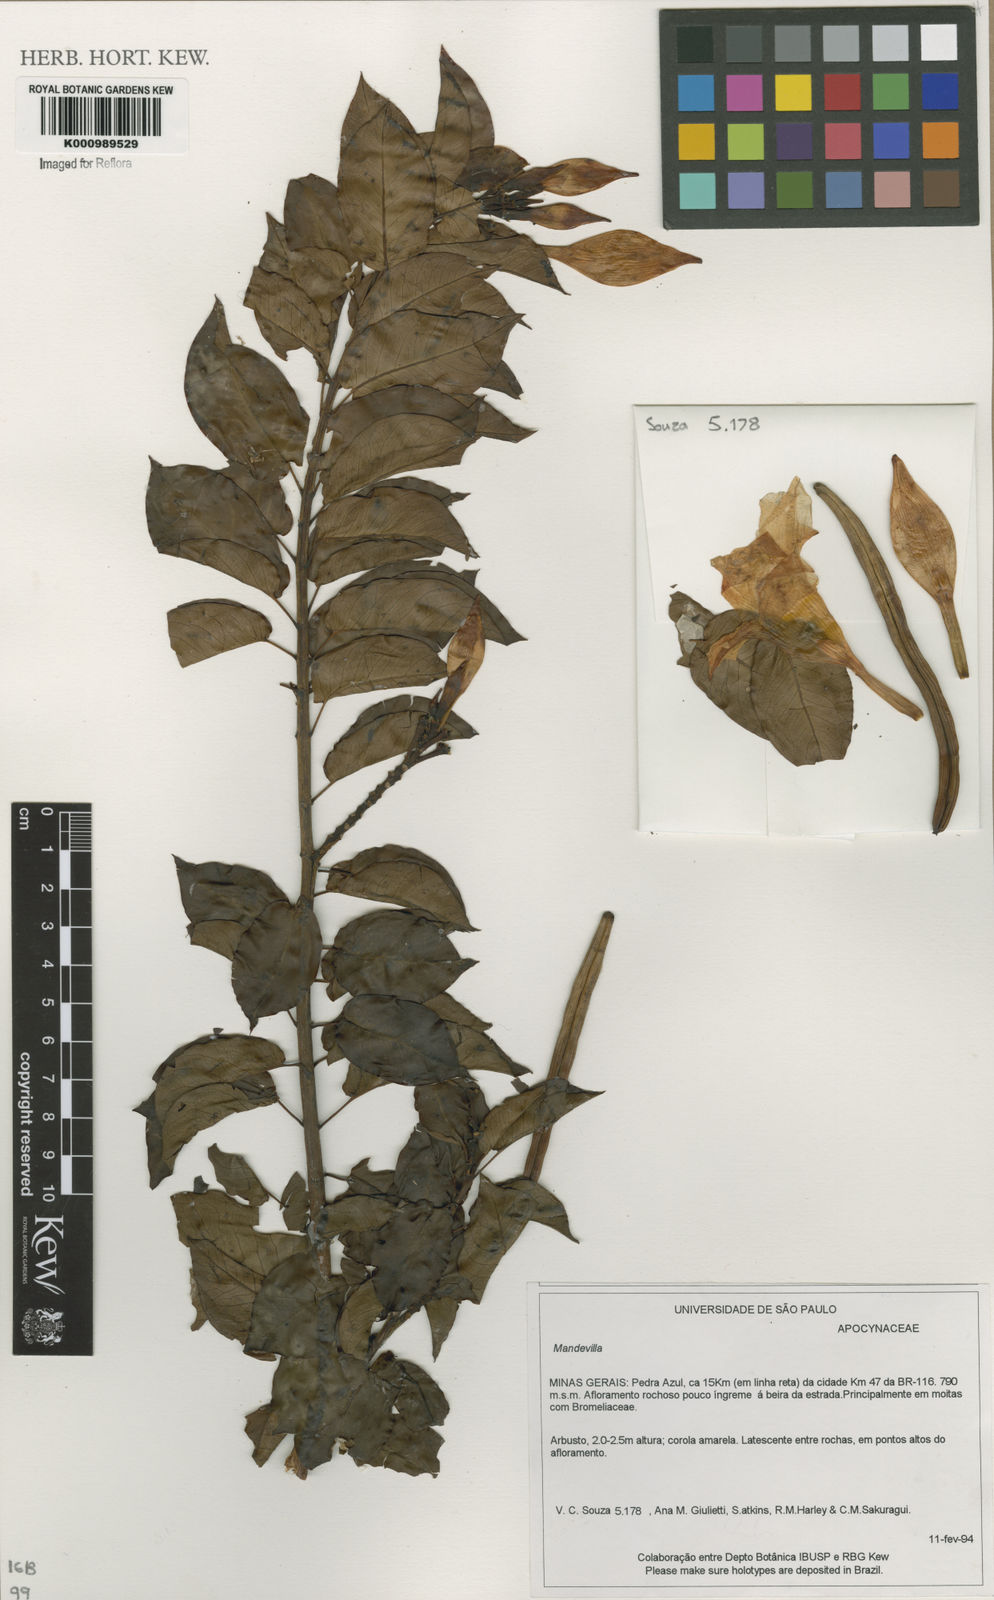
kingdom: Plantae
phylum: Tracheophyta
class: Magnoliopsida
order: Gentianales
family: Apocynaceae
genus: Mandevilla
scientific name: Mandevilla
